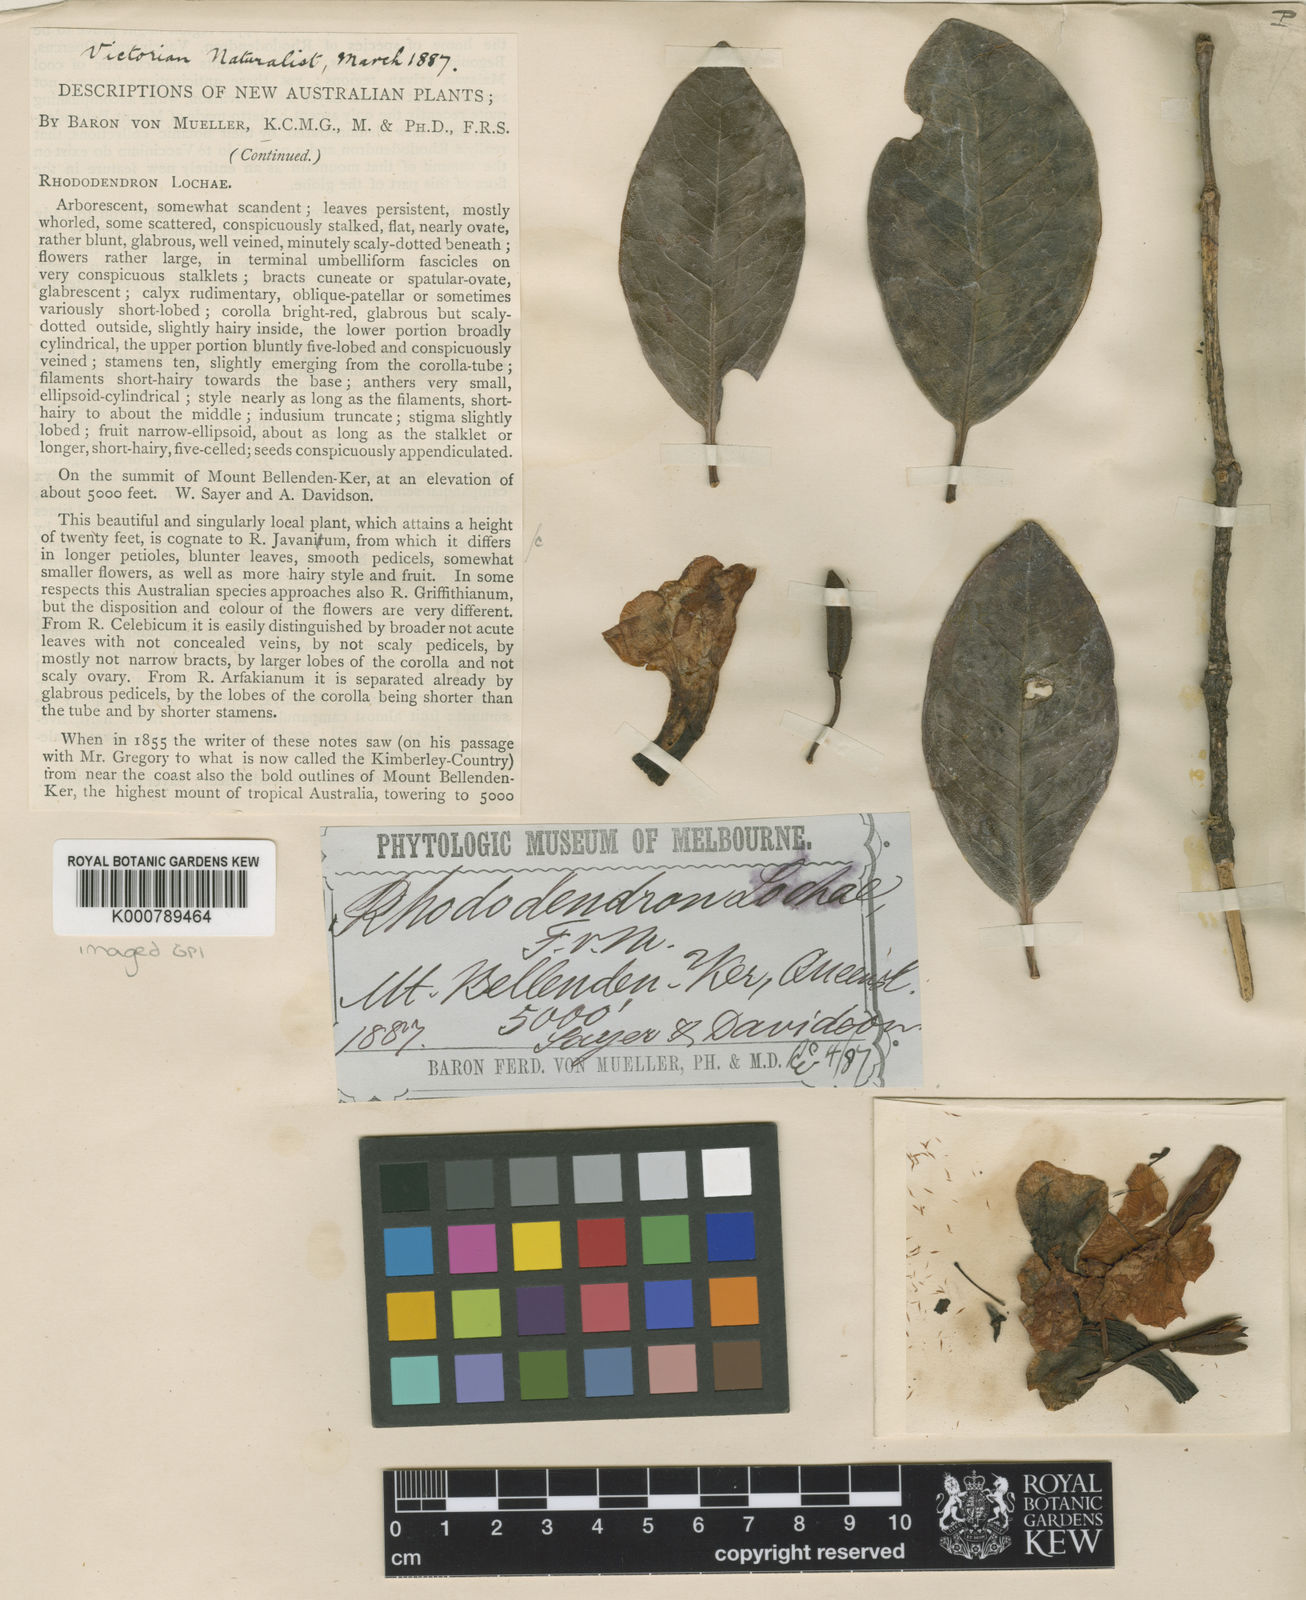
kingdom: Plantae
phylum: Tracheophyta
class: Magnoliopsida
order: Ericales
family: Ericaceae
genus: Rhododendron
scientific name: Rhododendron
